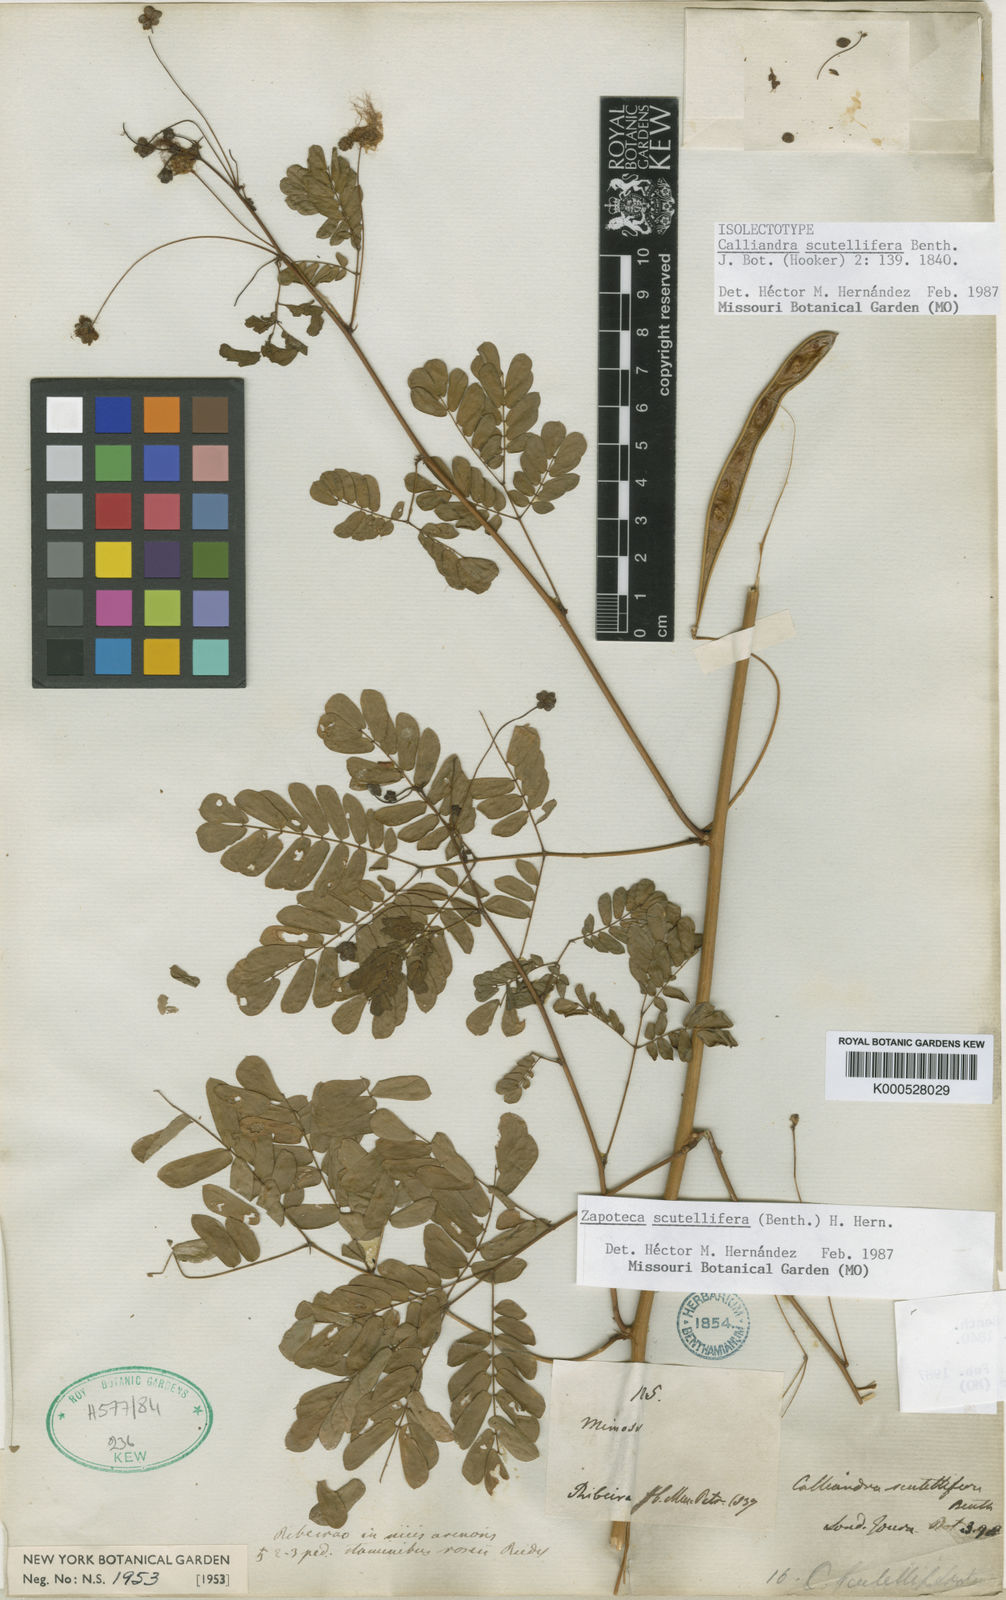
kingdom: Plantae
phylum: Tracheophyta
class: Magnoliopsida
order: Fabales
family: Fabaceae
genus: Zapoteca
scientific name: Zapoteca scutellifera
